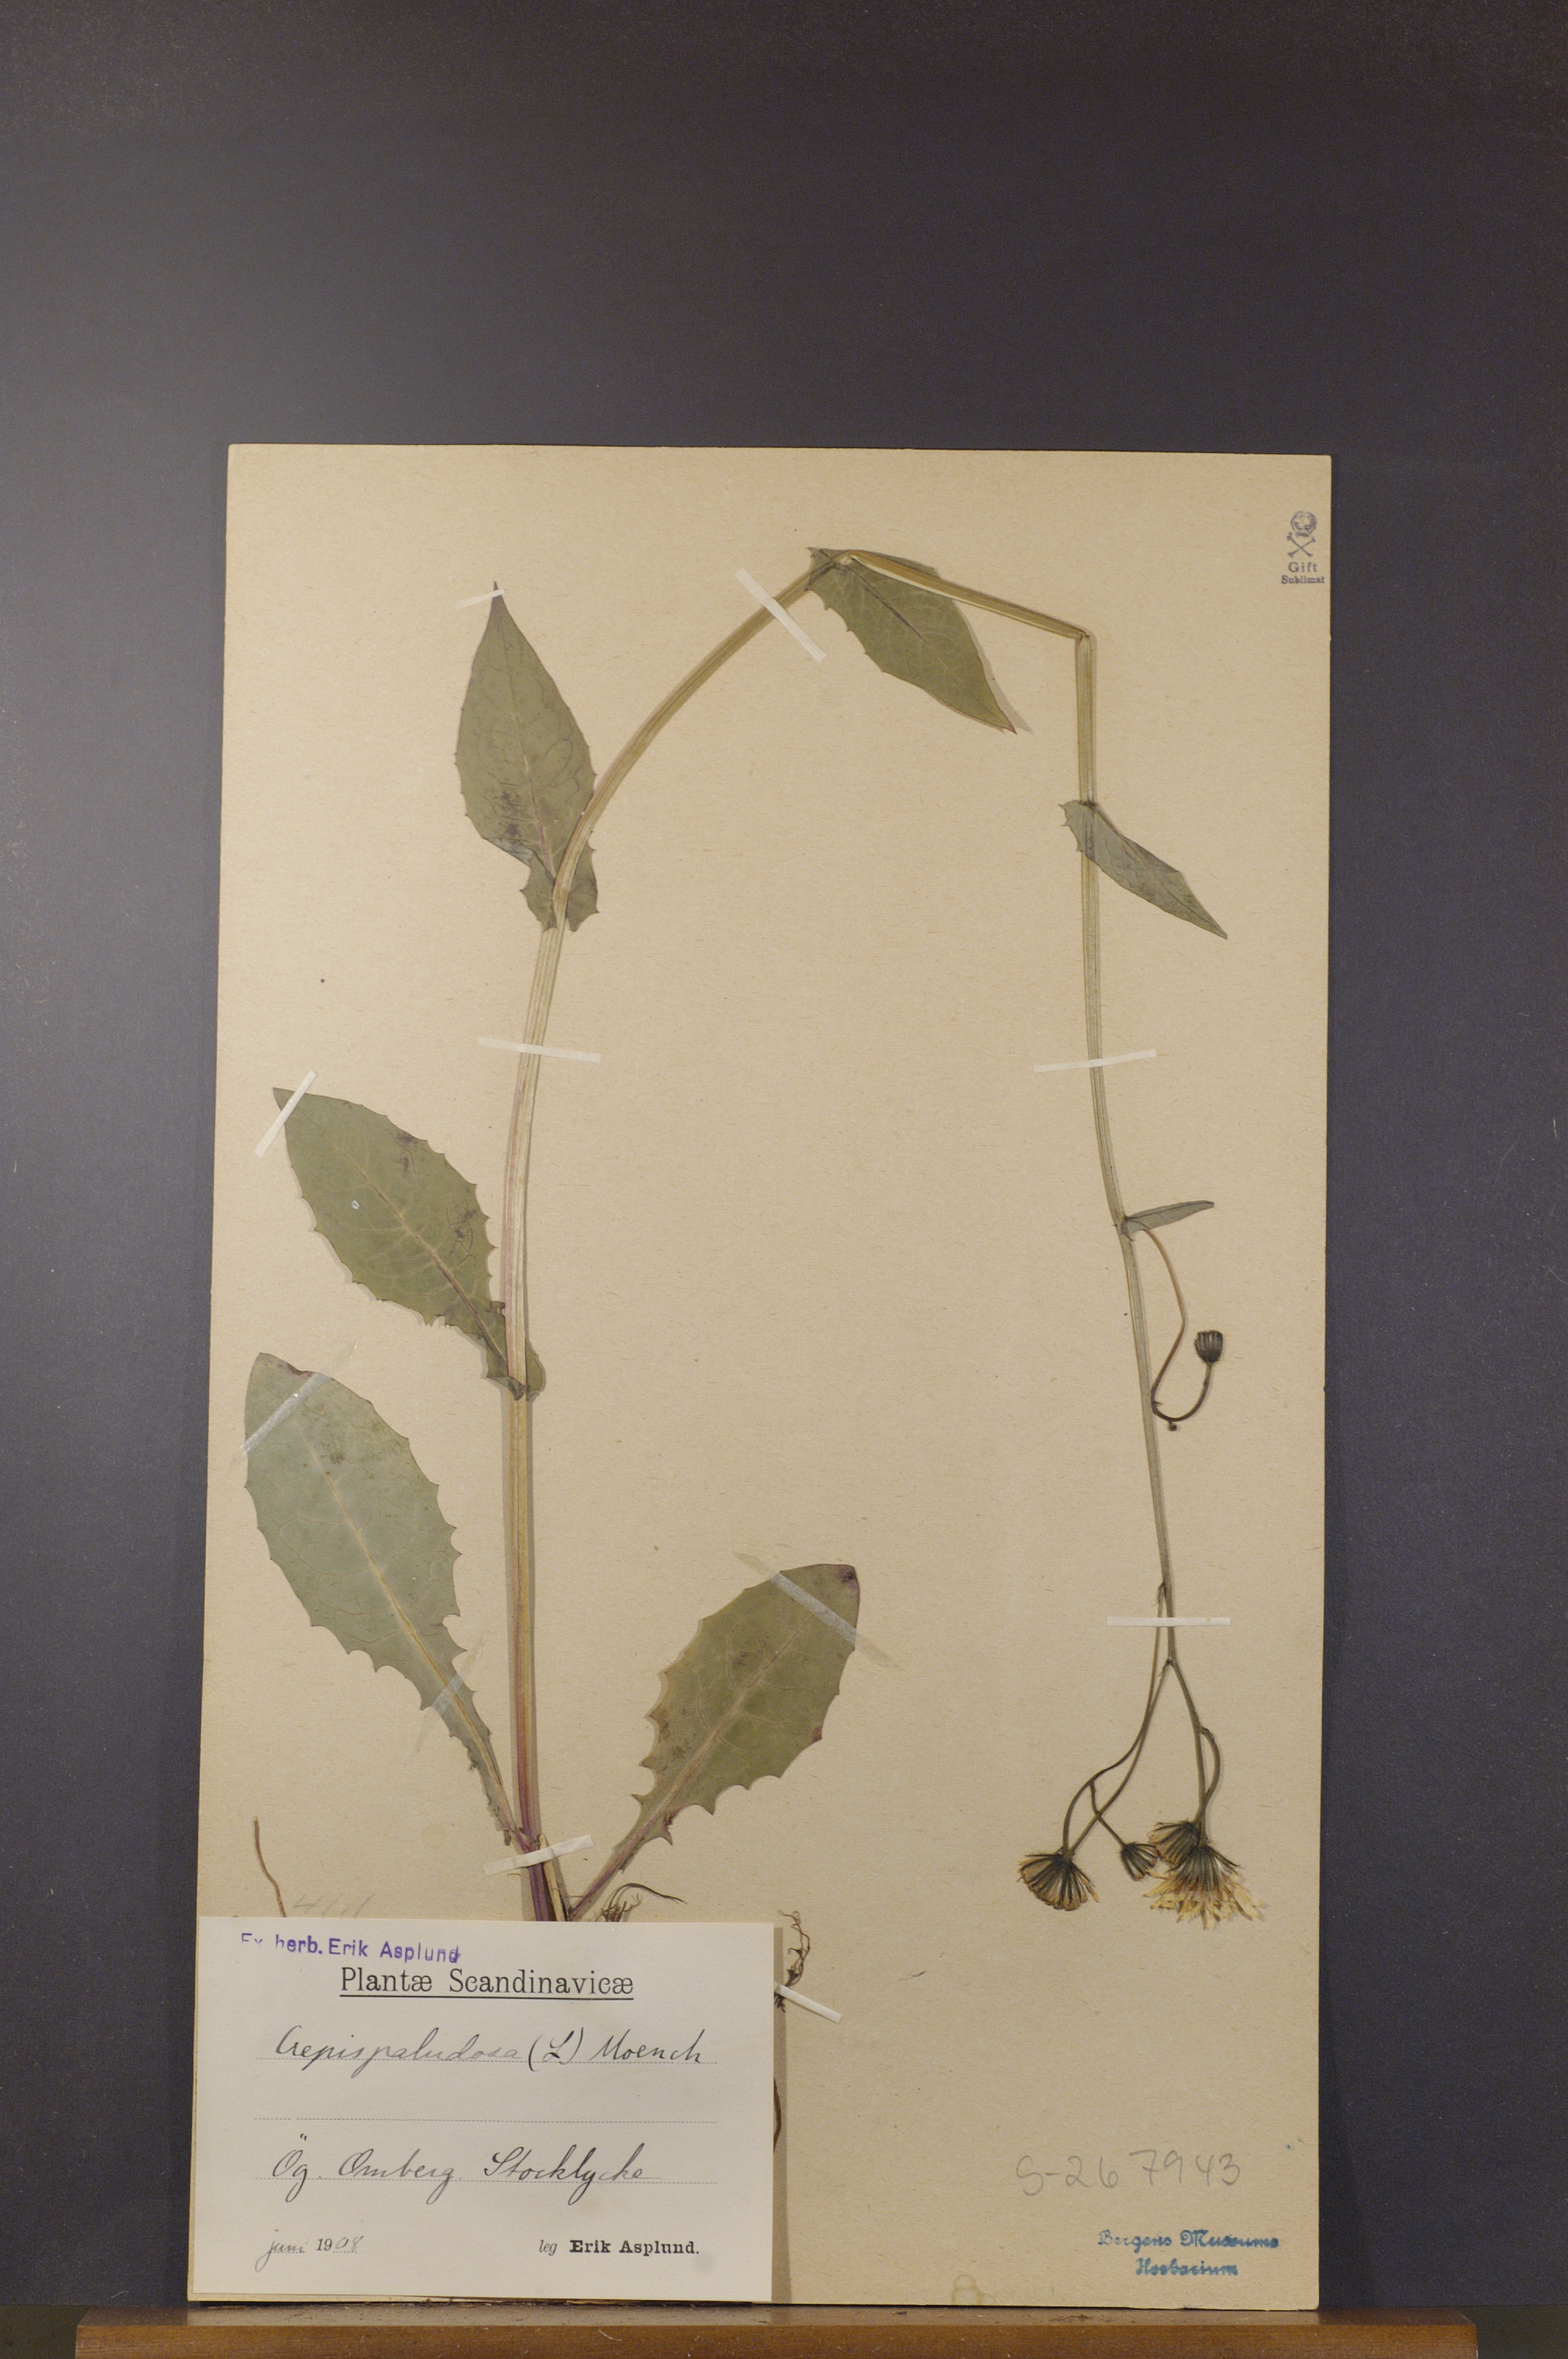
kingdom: Plantae
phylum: Tracheophyta
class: Magnoliopsida
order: Asterales
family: Asteraceae
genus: Crepis
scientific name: Crepis paludosa
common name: Marsh hawk's-beard
